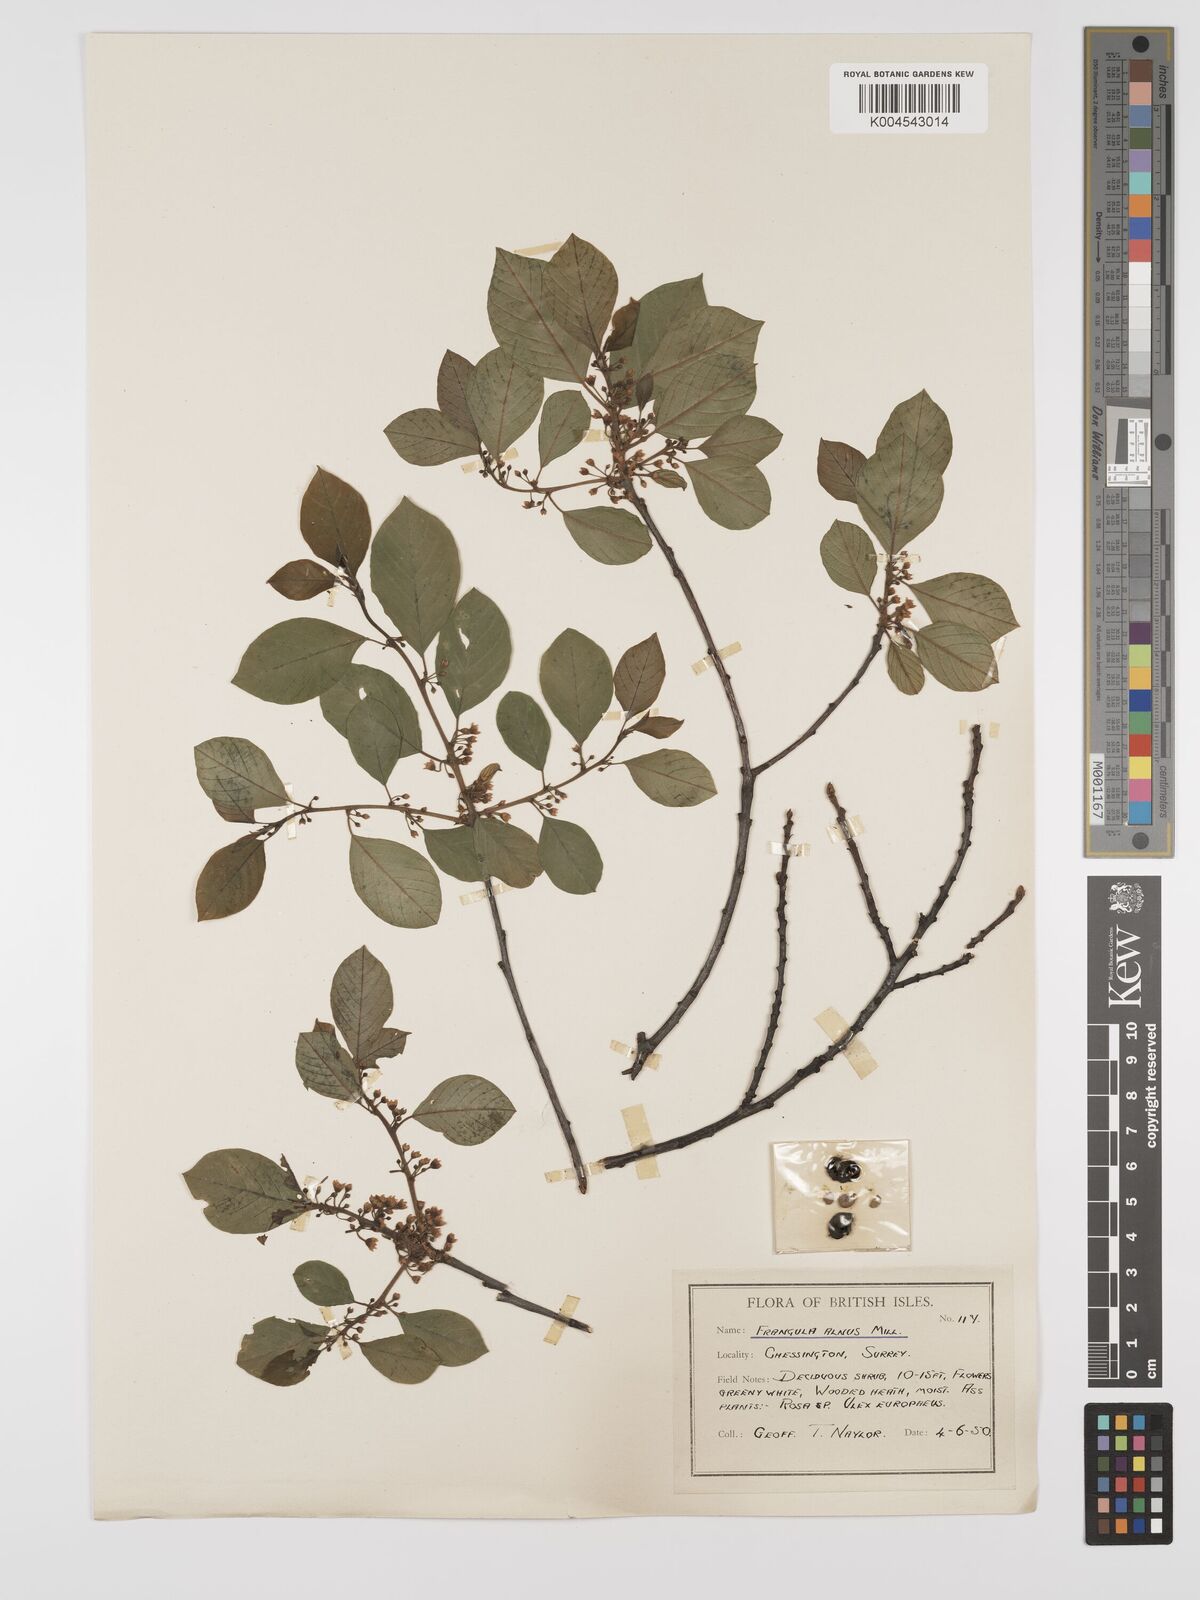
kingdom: Plantae
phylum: Tracheophyta
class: Magnoliopsida
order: Rosales
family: Rhamnaceae
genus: Frangula
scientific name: Frangula alnus
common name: Alder buckthorn
